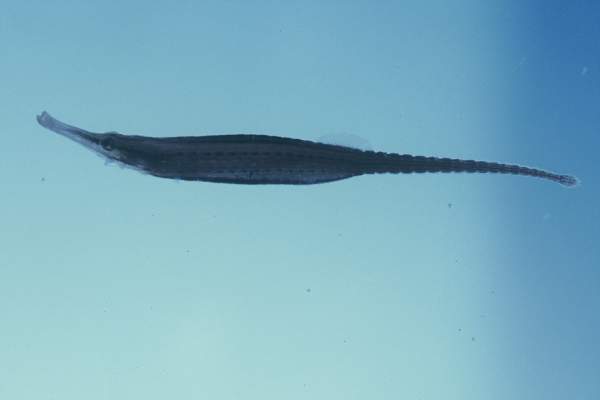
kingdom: Animalia
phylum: Chordata
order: Syngnathiformes
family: Syngnathidae
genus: Choeroichthys
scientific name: Choeroichthys brachysoma
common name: Short-bodied pipefish
